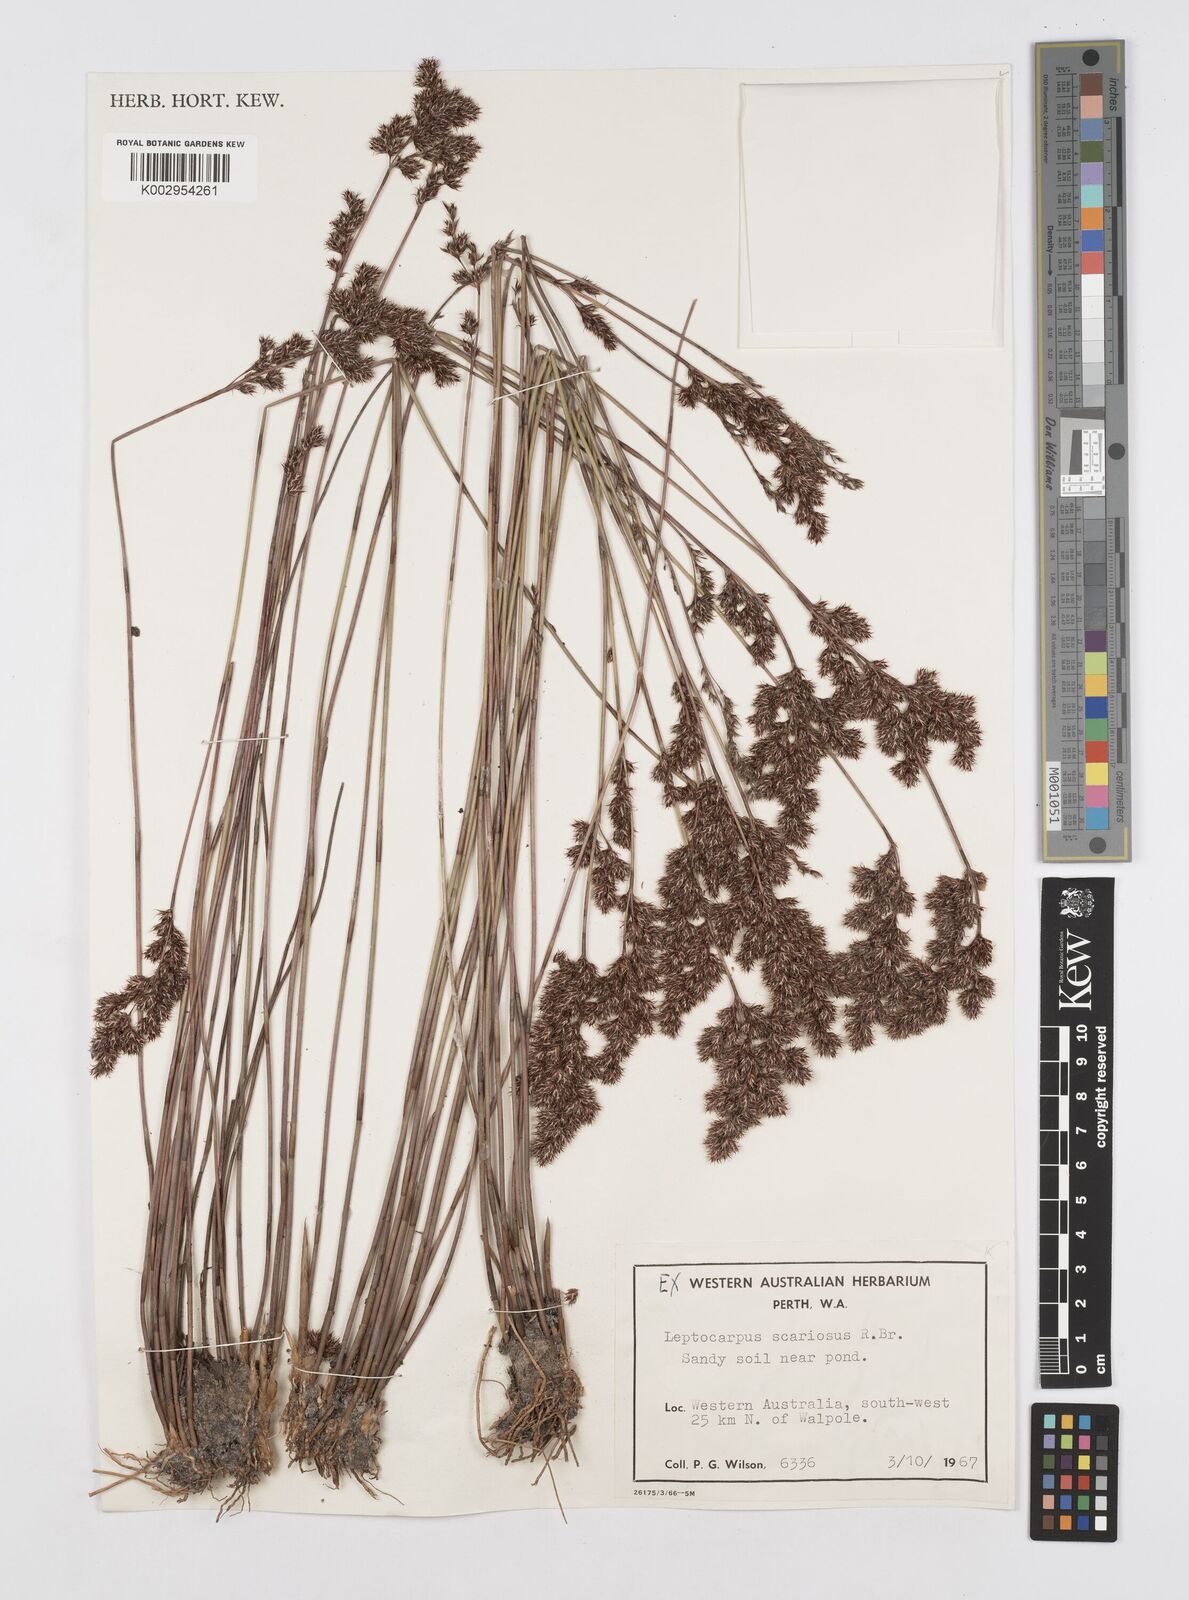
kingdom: Plantae
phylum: Tracheophyta
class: Liliopsida
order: Poales
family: Restionaceae
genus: Leptocarpus
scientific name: Leptocarpus scariosus
